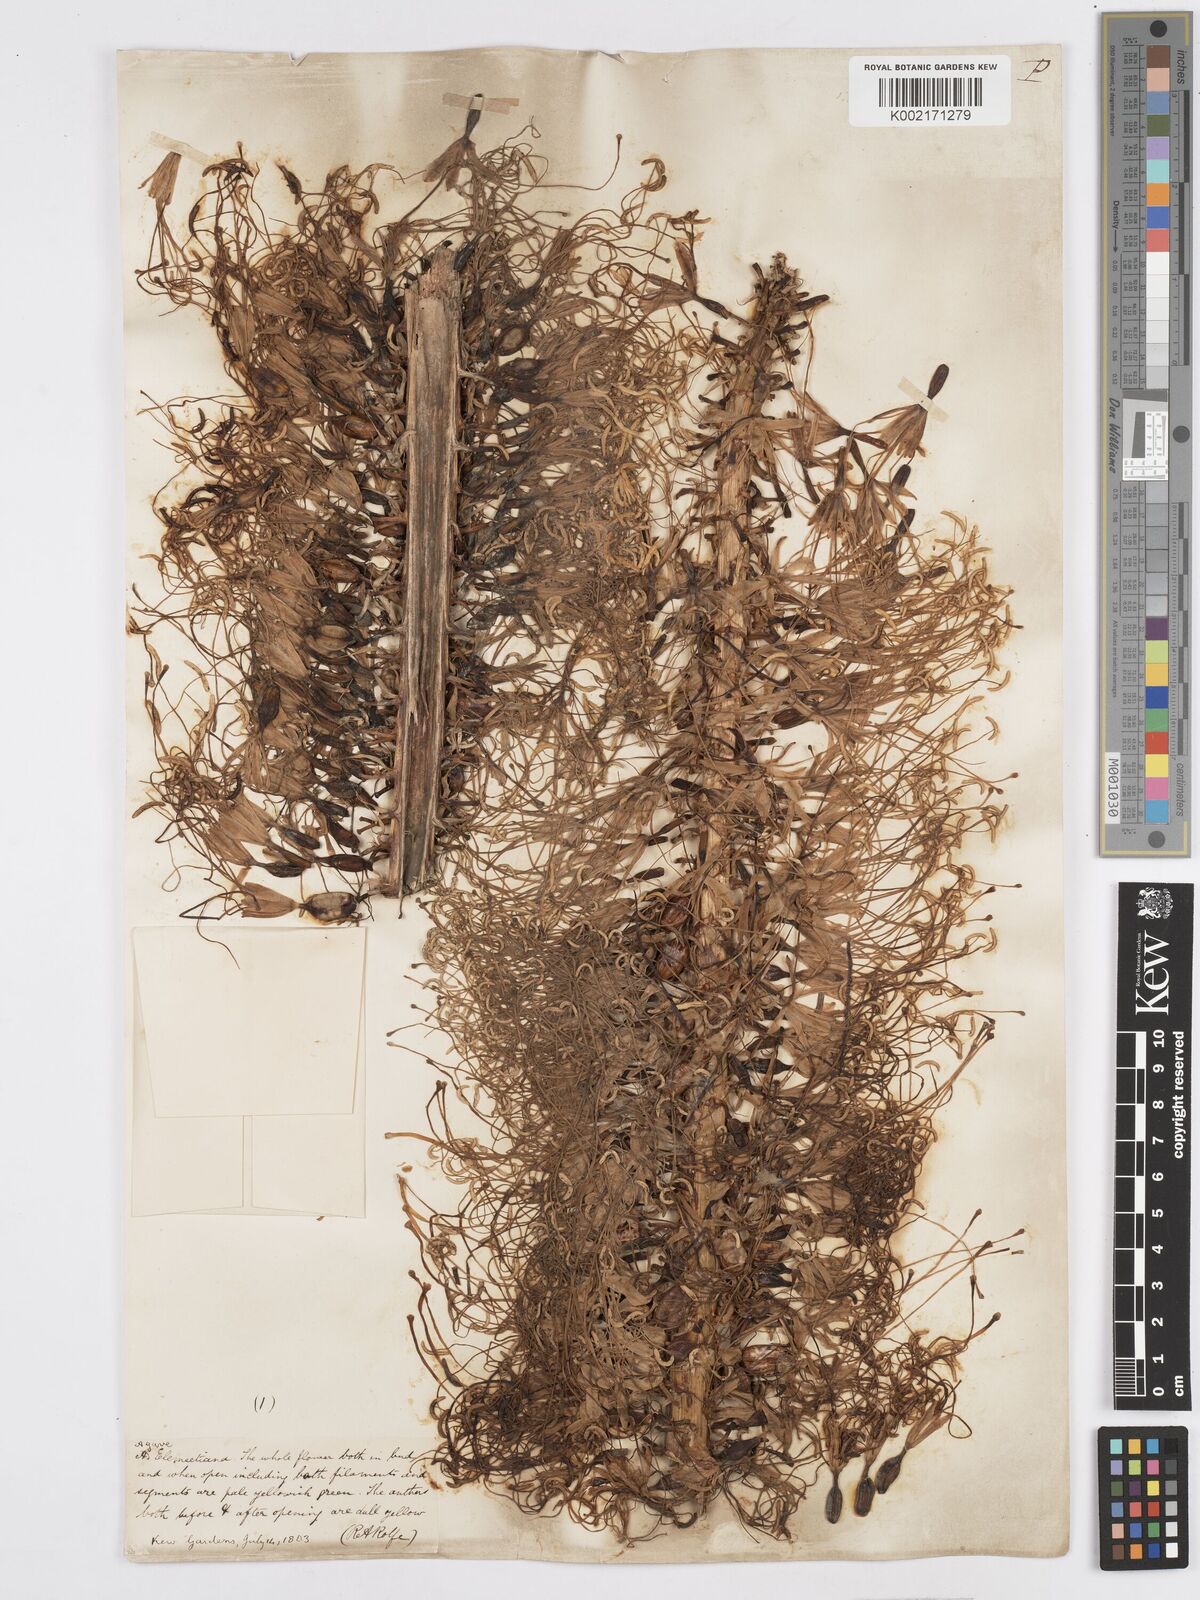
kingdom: Plantae
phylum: Tracheophyta
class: Liliopsida
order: Asparagales
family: Asparagaceae
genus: Agave
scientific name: Agave ellemeetiana
